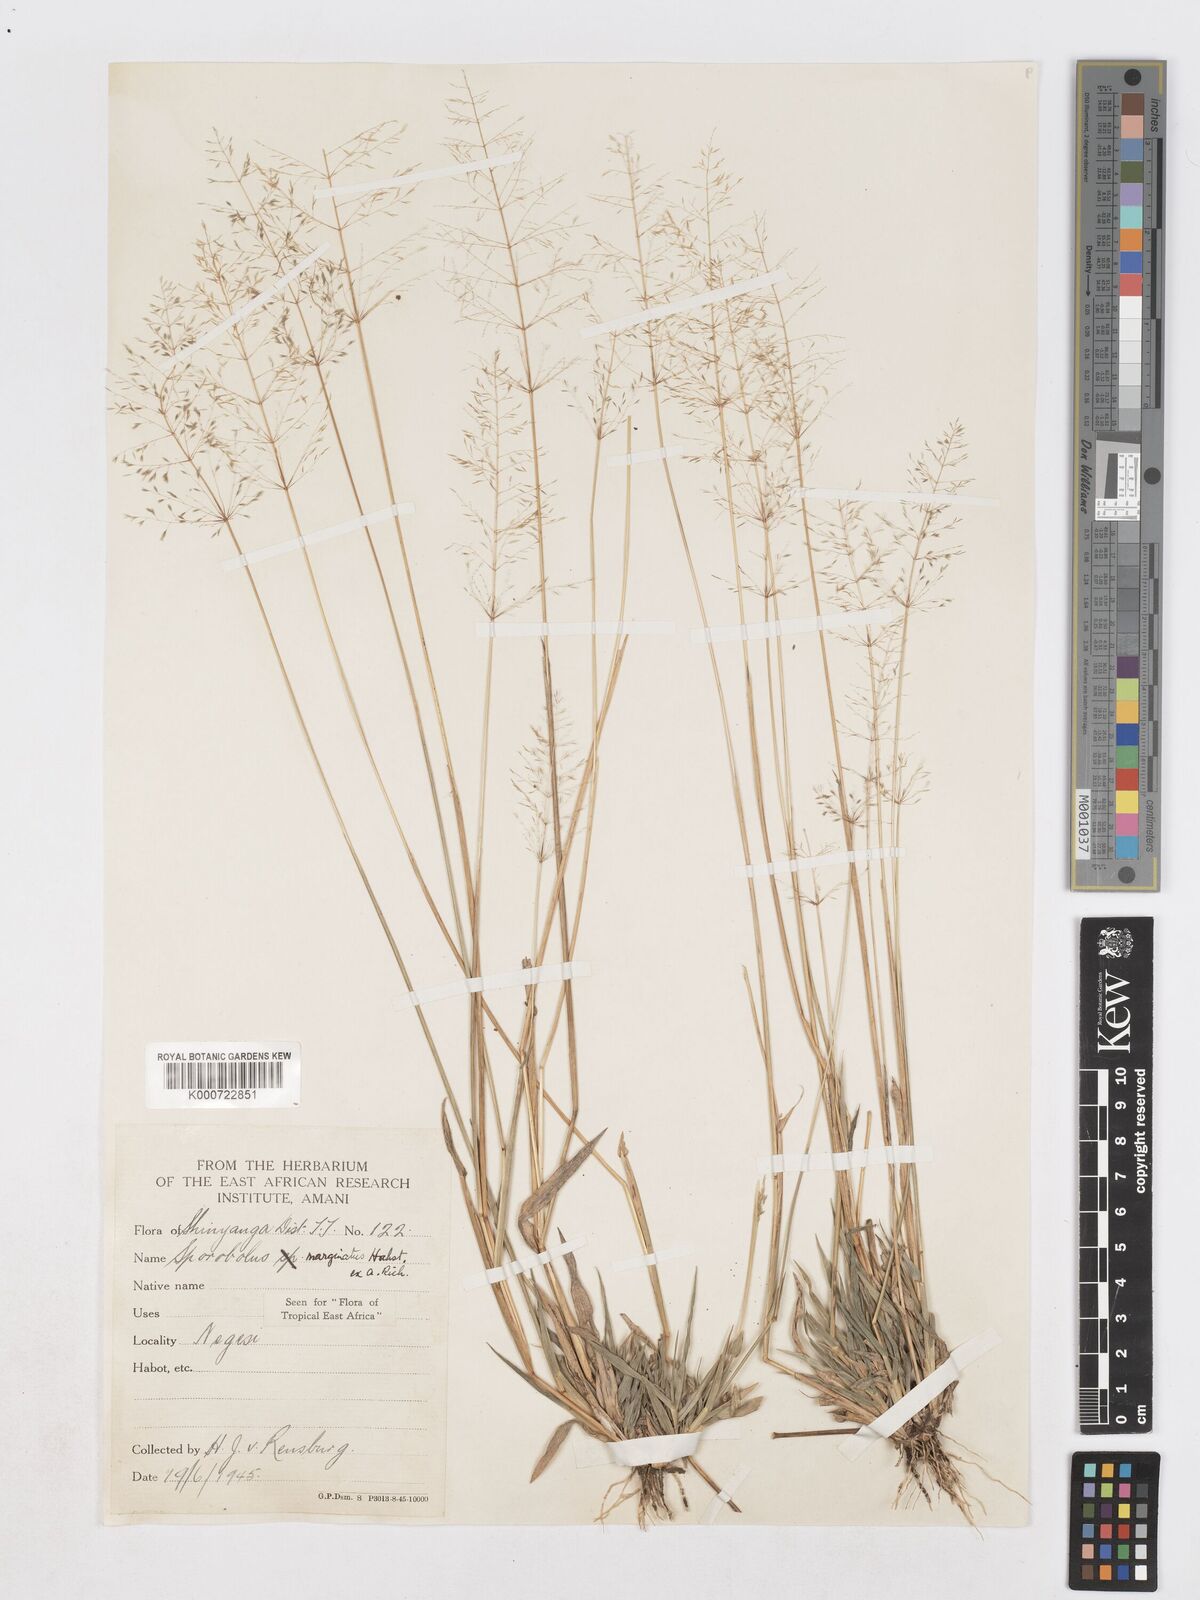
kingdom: Plantae
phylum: Tracheophyta
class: Liliopsida
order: Poales
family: Poaceae
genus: Sporobolus
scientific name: Sporobolus ioclados
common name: Pan dropseed
